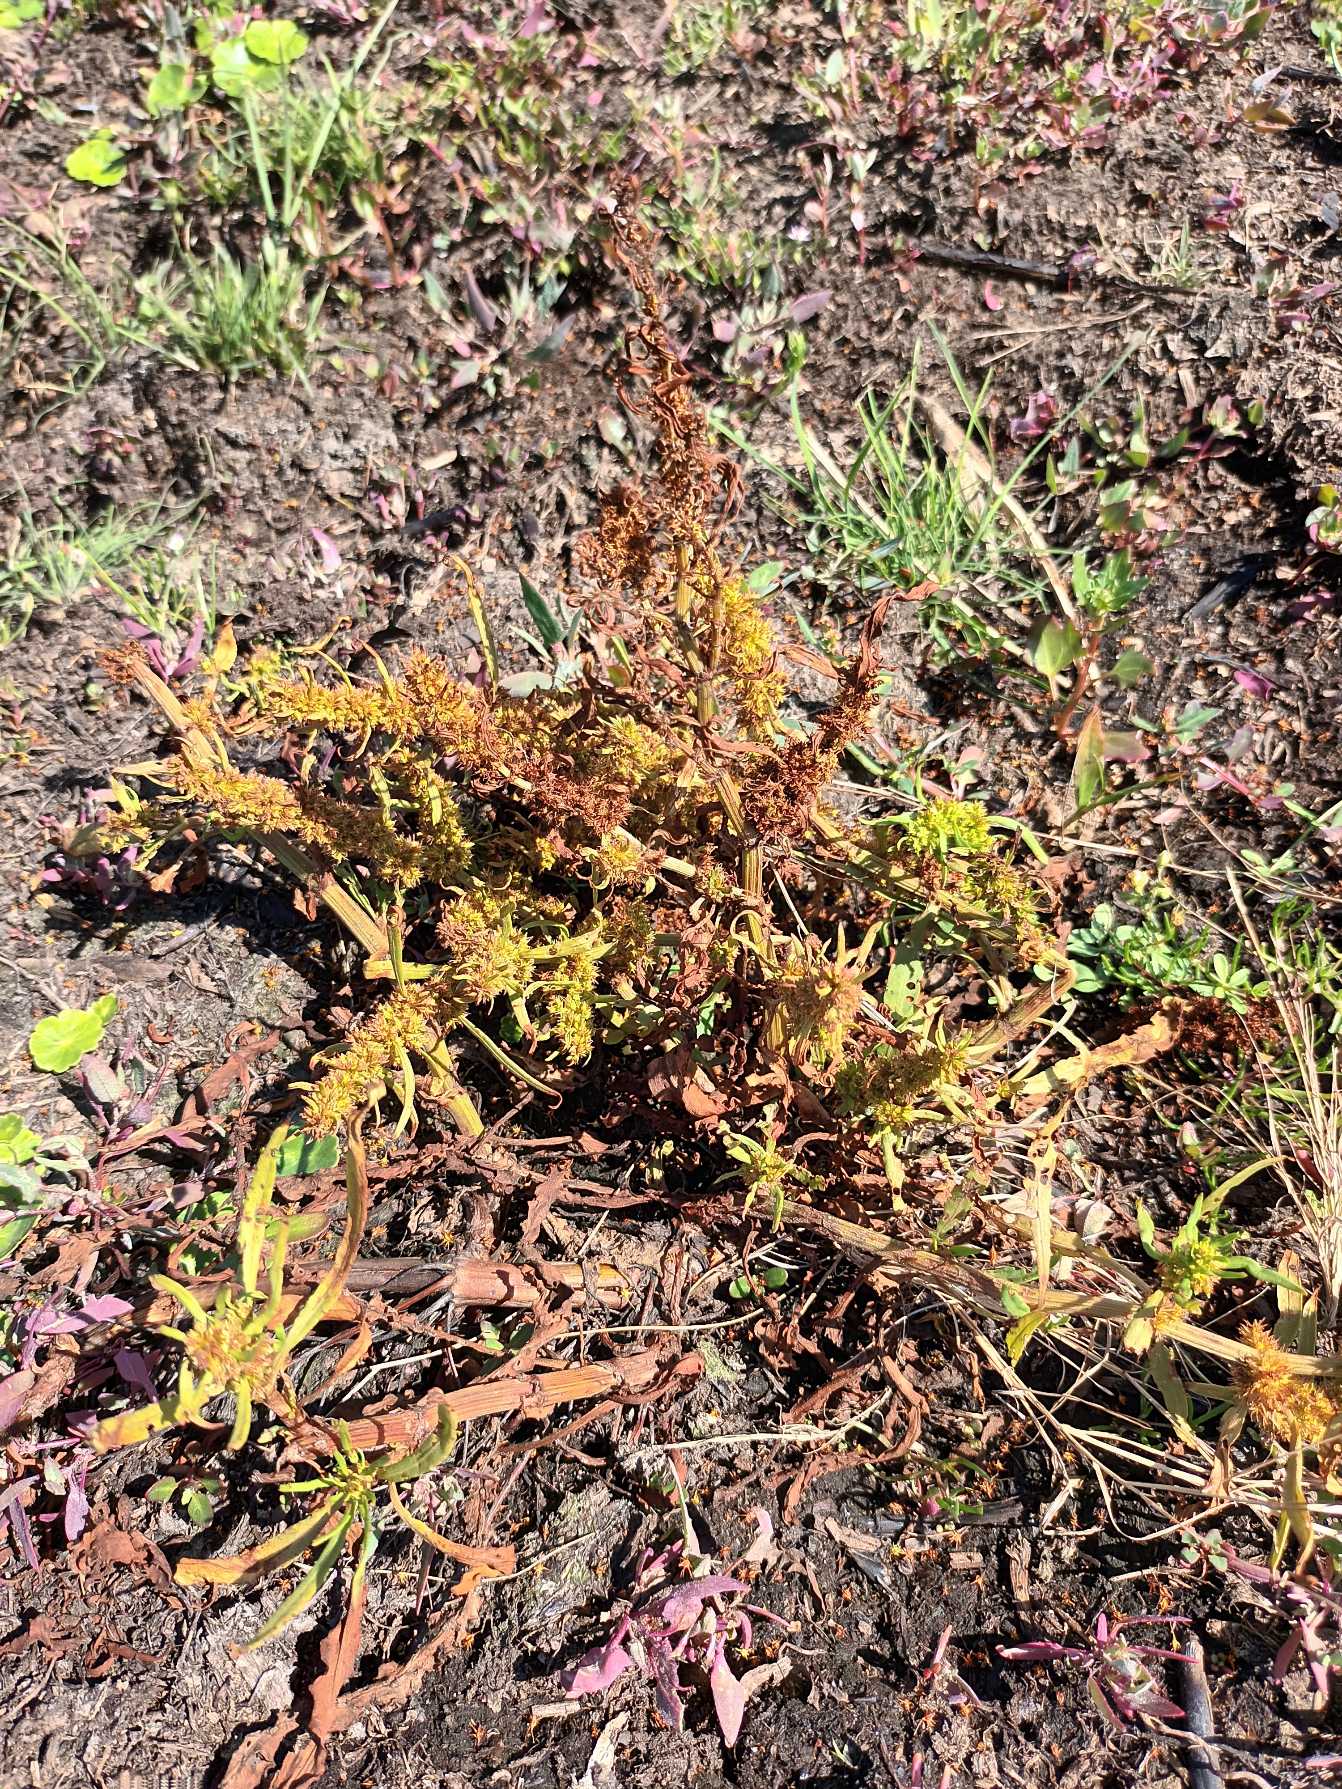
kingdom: Plantae
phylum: Tracheophyta
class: Magnoliopsida
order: Caryophyllales
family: Polygonaceae
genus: Rumex
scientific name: Rumex palustris
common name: Sump-skræppe
